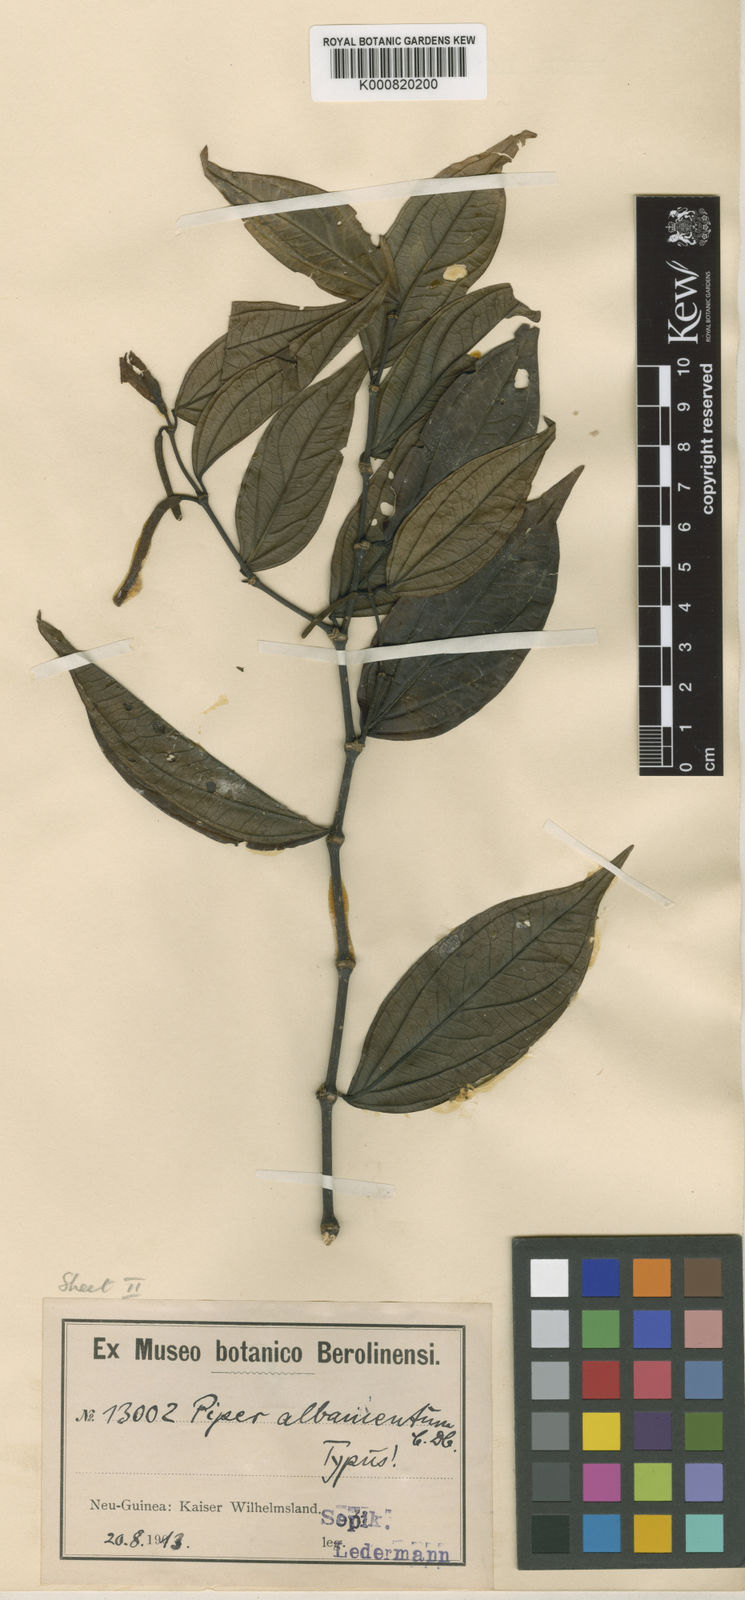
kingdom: Plantae
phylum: Tracheophyta
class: Magnoliopsida
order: Piperales
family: Piperaceae
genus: Piper
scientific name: Piper albamentum
